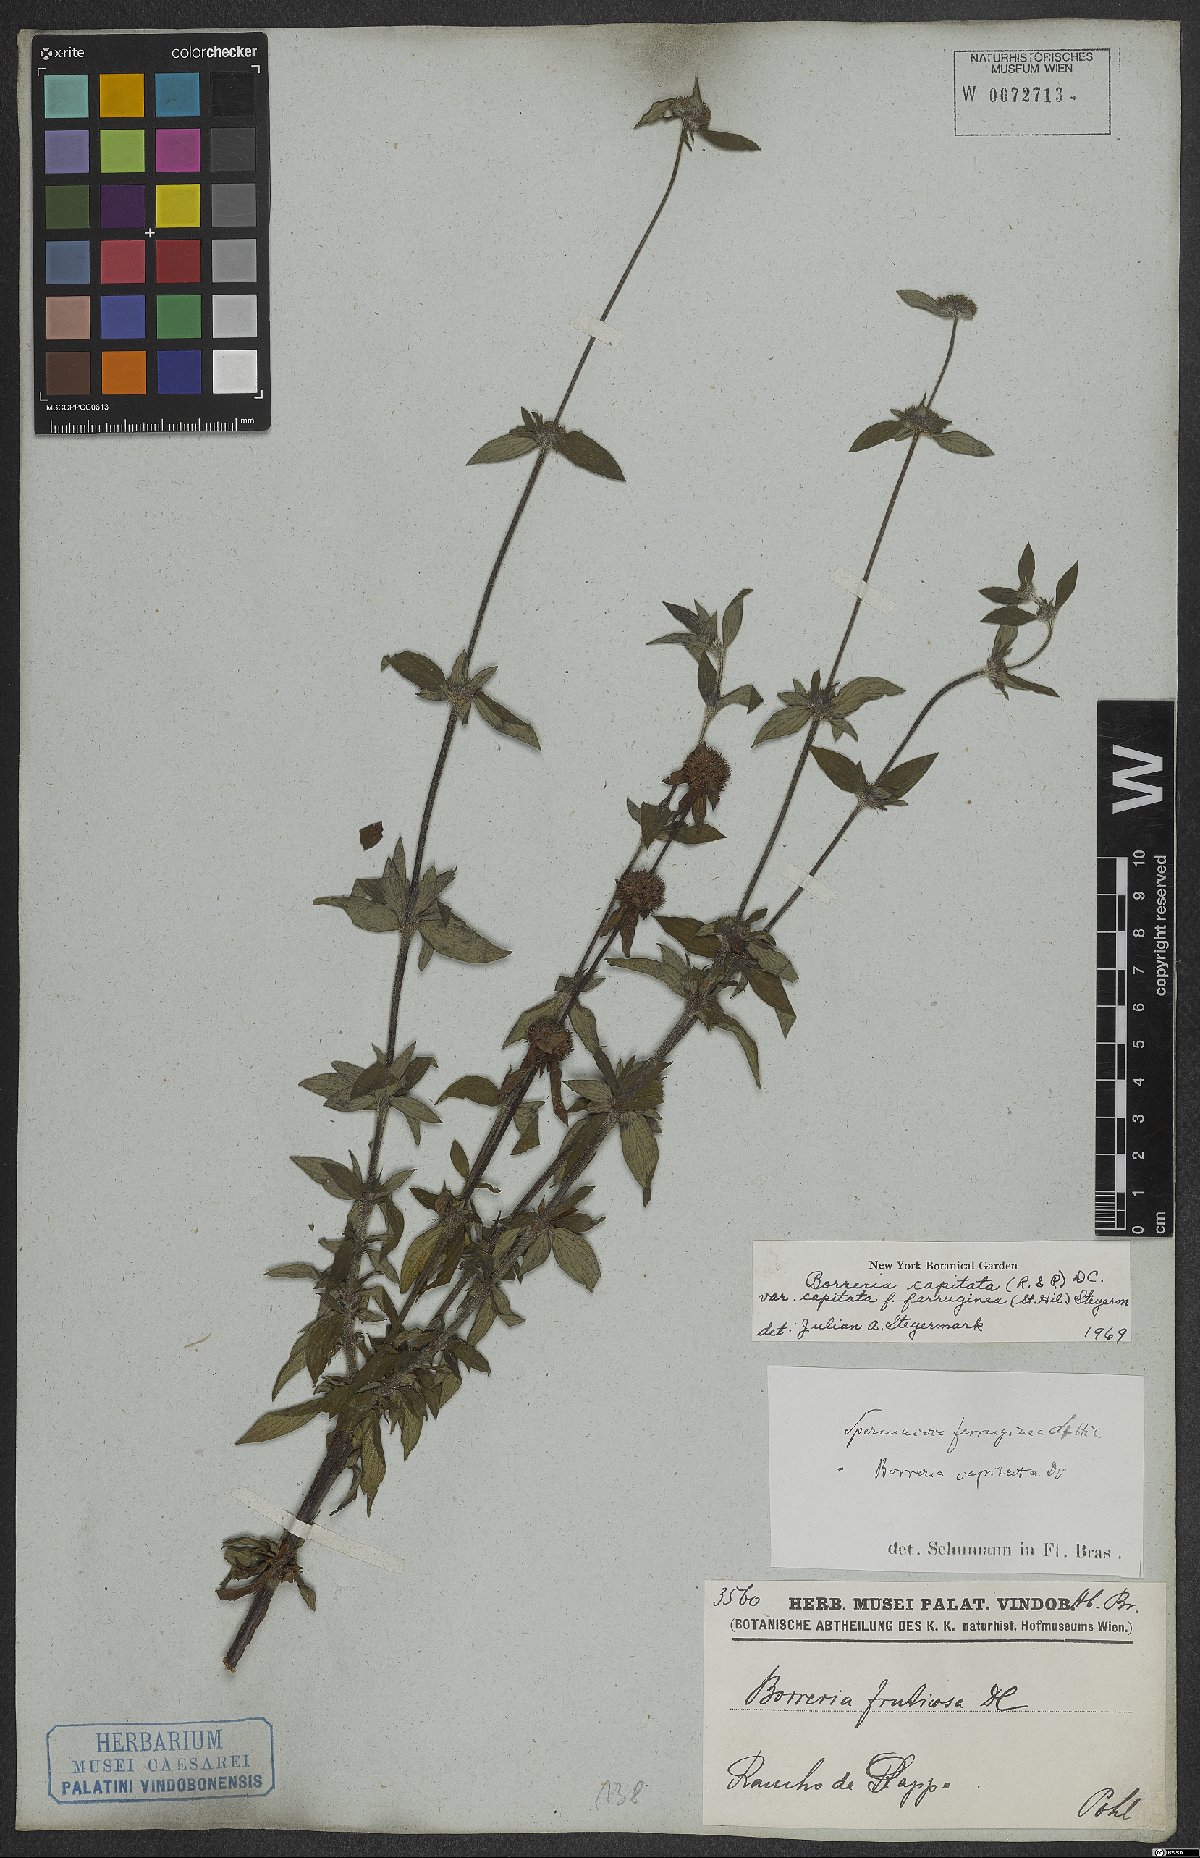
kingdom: Plantae
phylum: Tracheophyta
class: Magnoliopsida
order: Gentianales
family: Rubiaceae
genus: Spermacoce
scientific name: Spermacoce capitata
